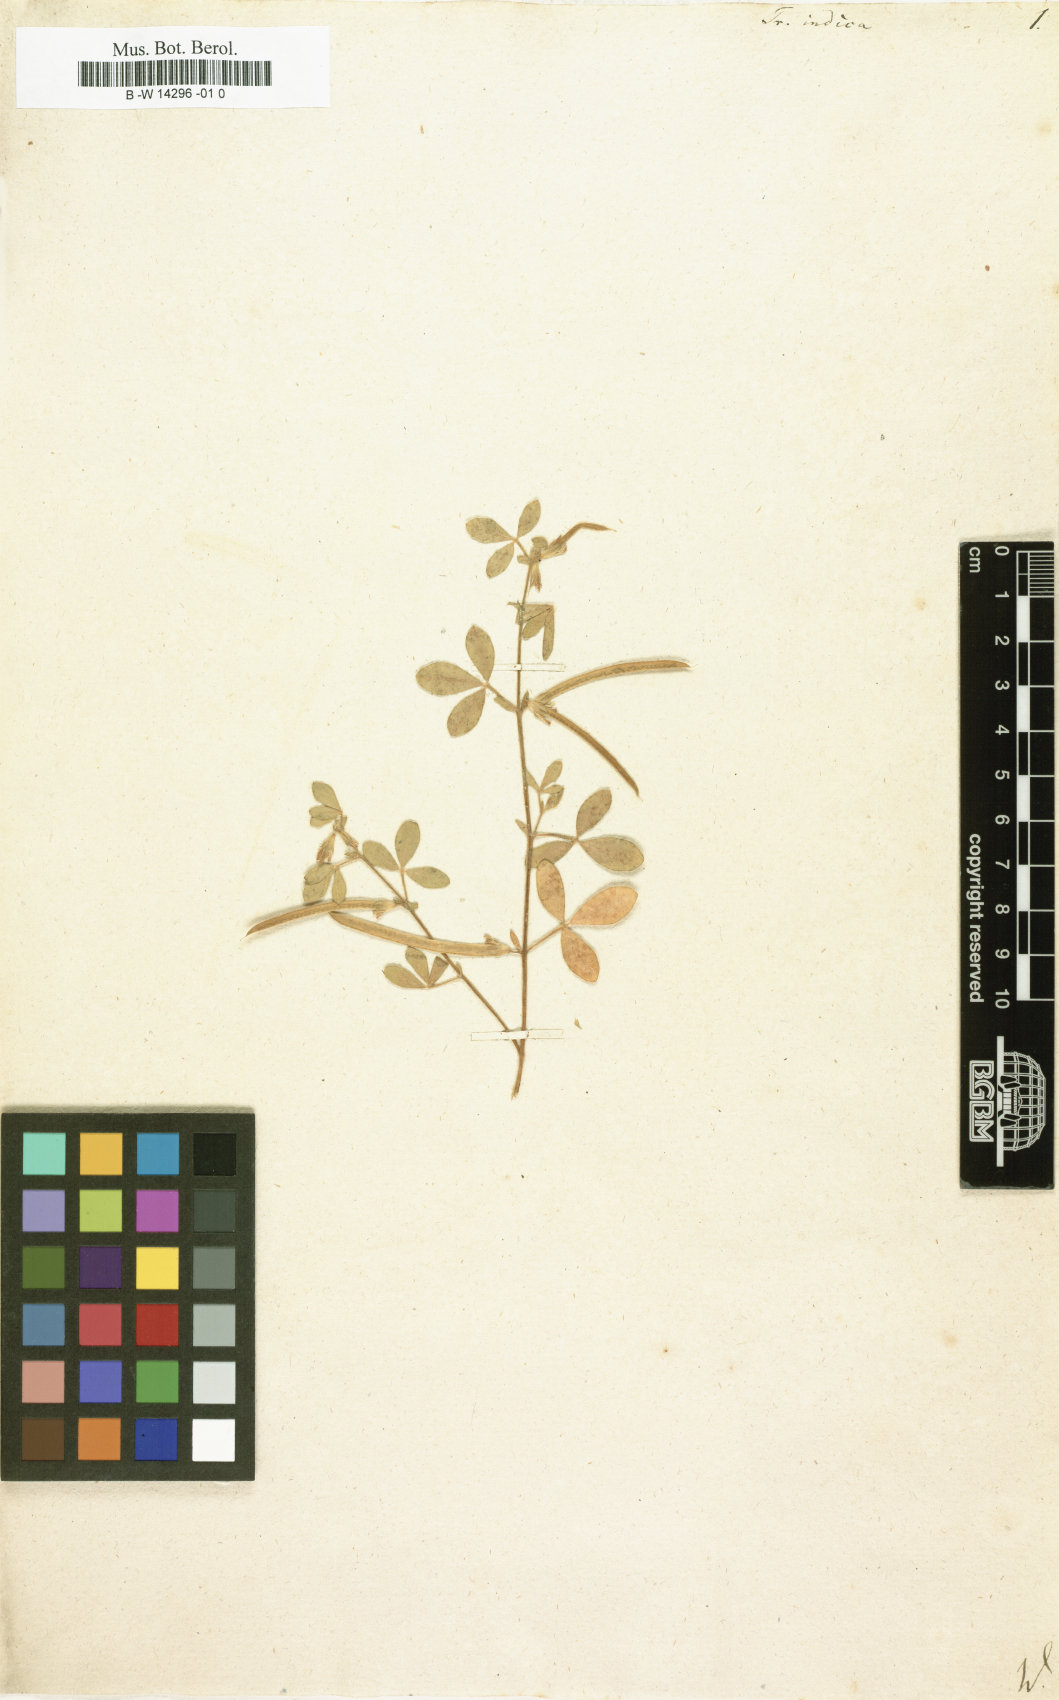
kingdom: Plantae
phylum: Tracheophyta
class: Magnoliopsida
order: Fabales
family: Fabaceae
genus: Rothia
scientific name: Rothia indica
